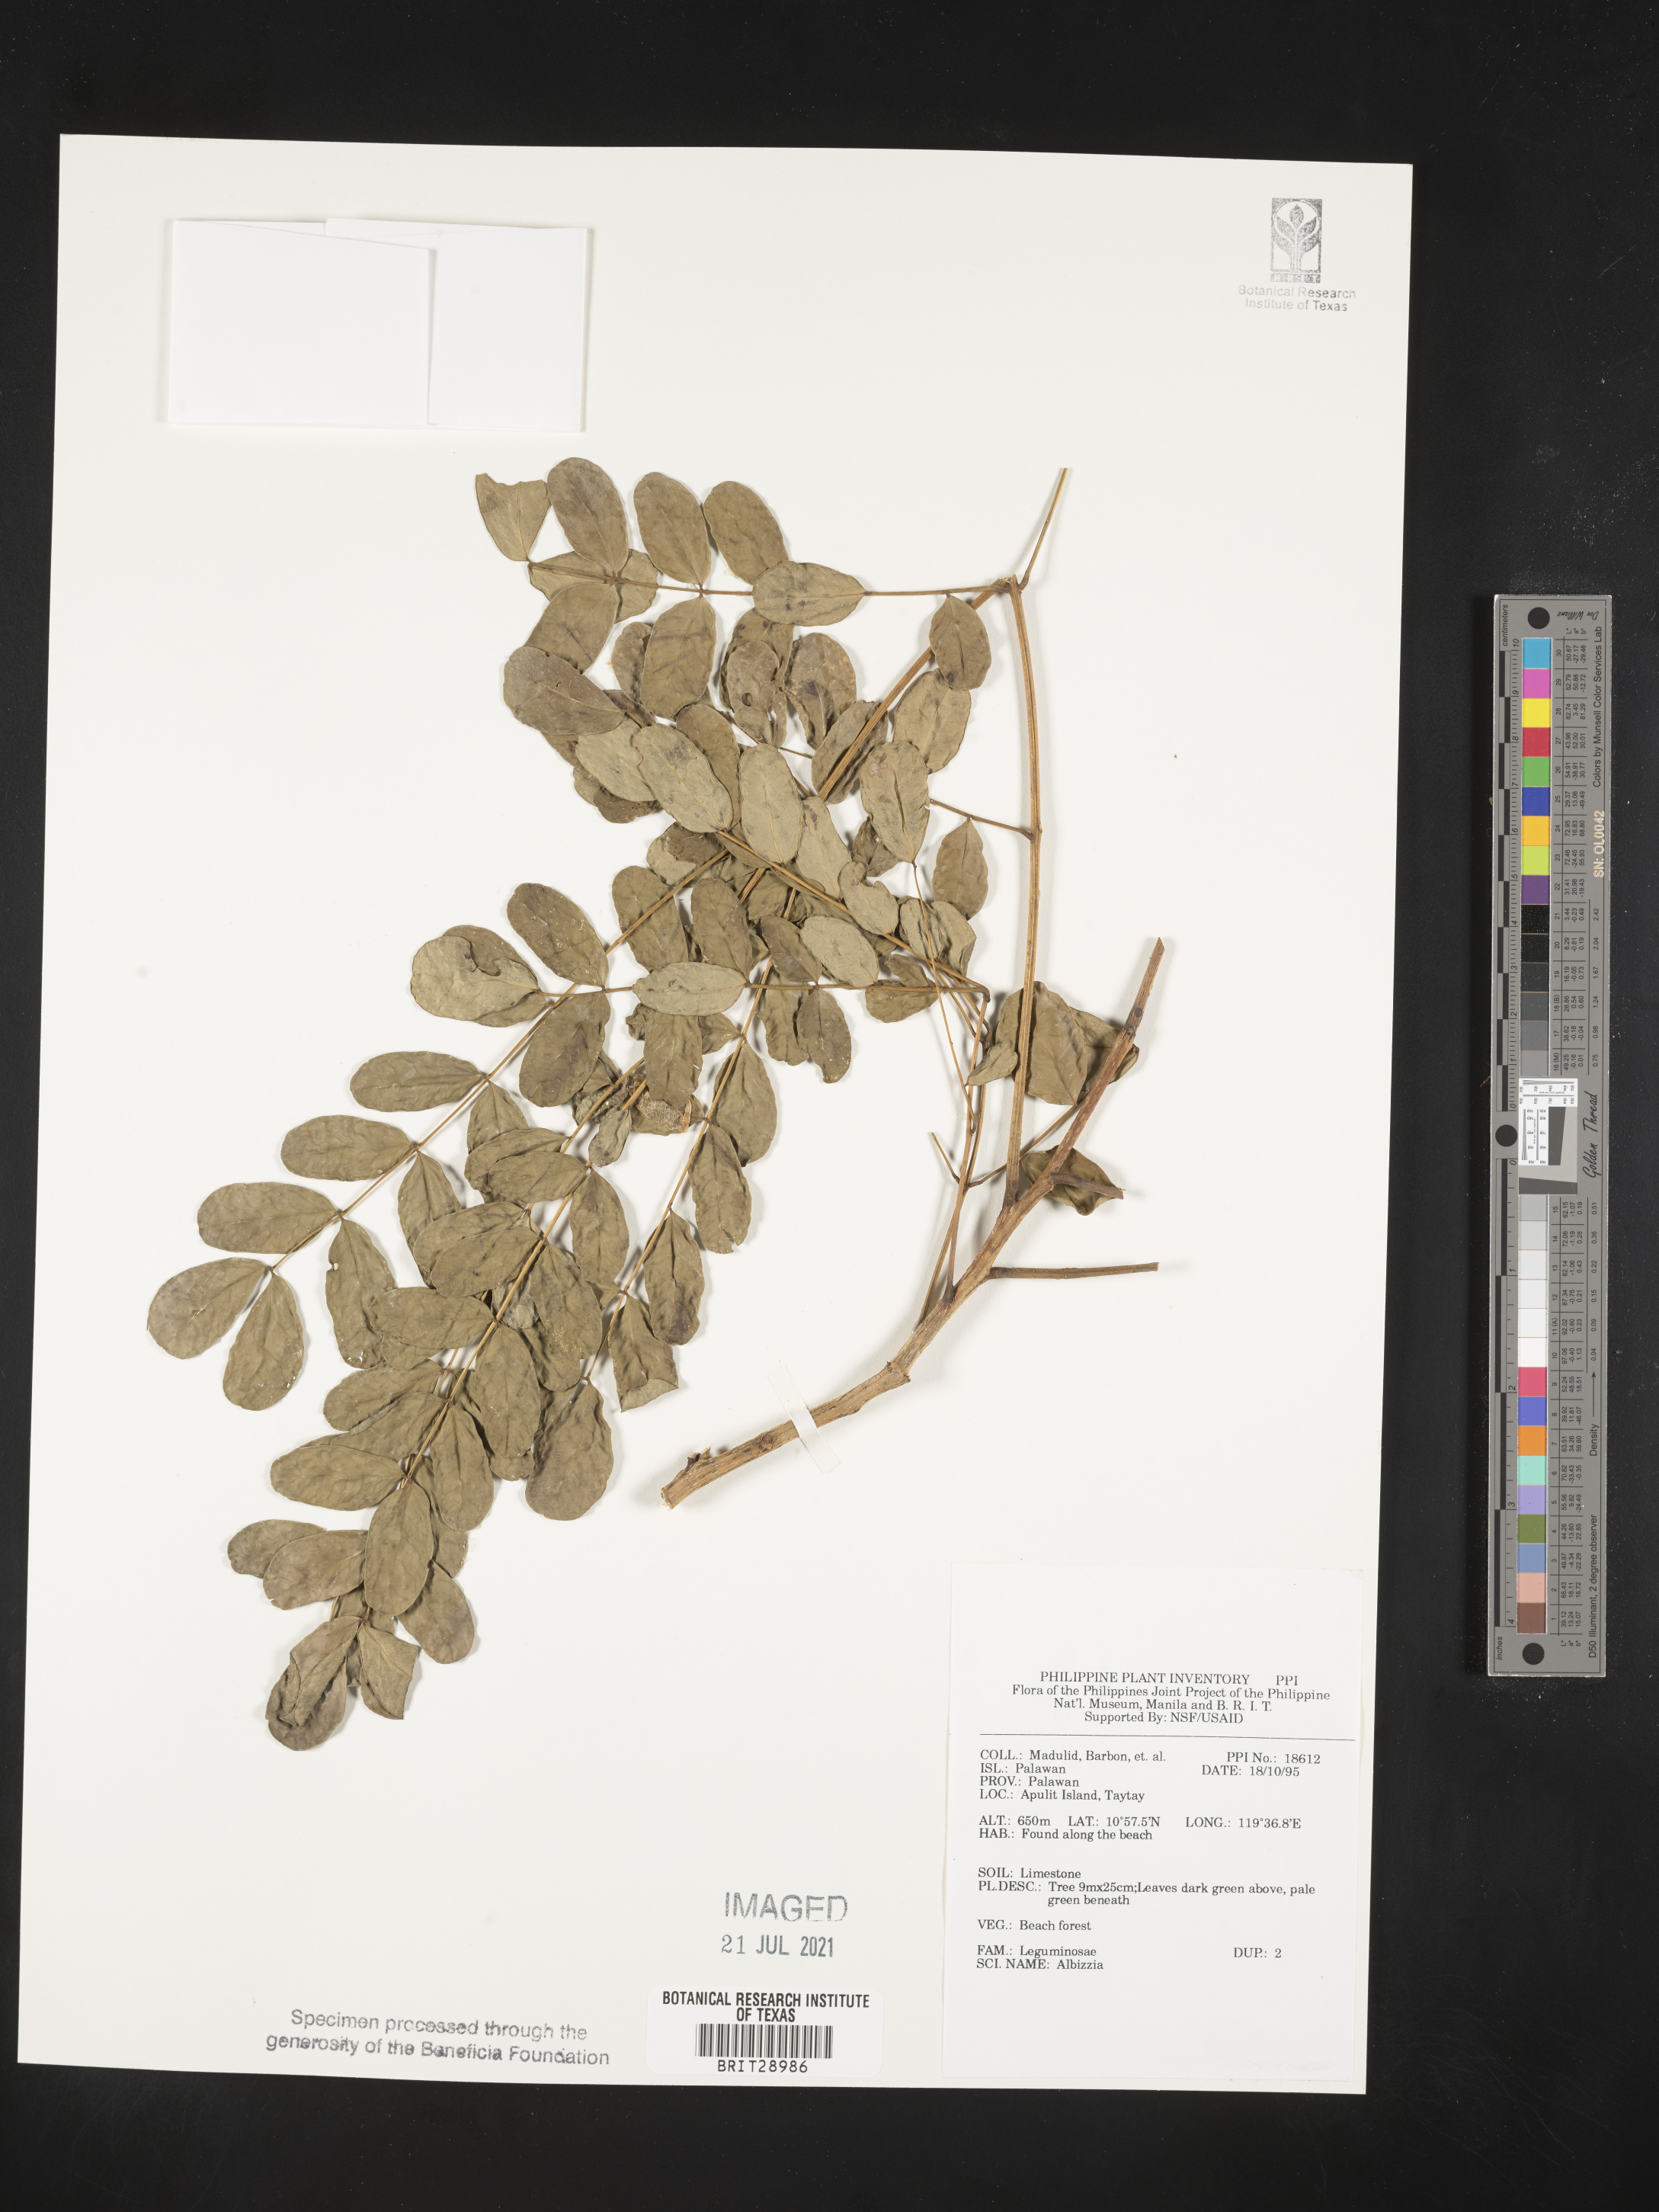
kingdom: Plantae
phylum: Tracheophyta
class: Magnoliopsida
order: Fabales
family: Fabaceae
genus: Albizia
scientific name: Albizia
